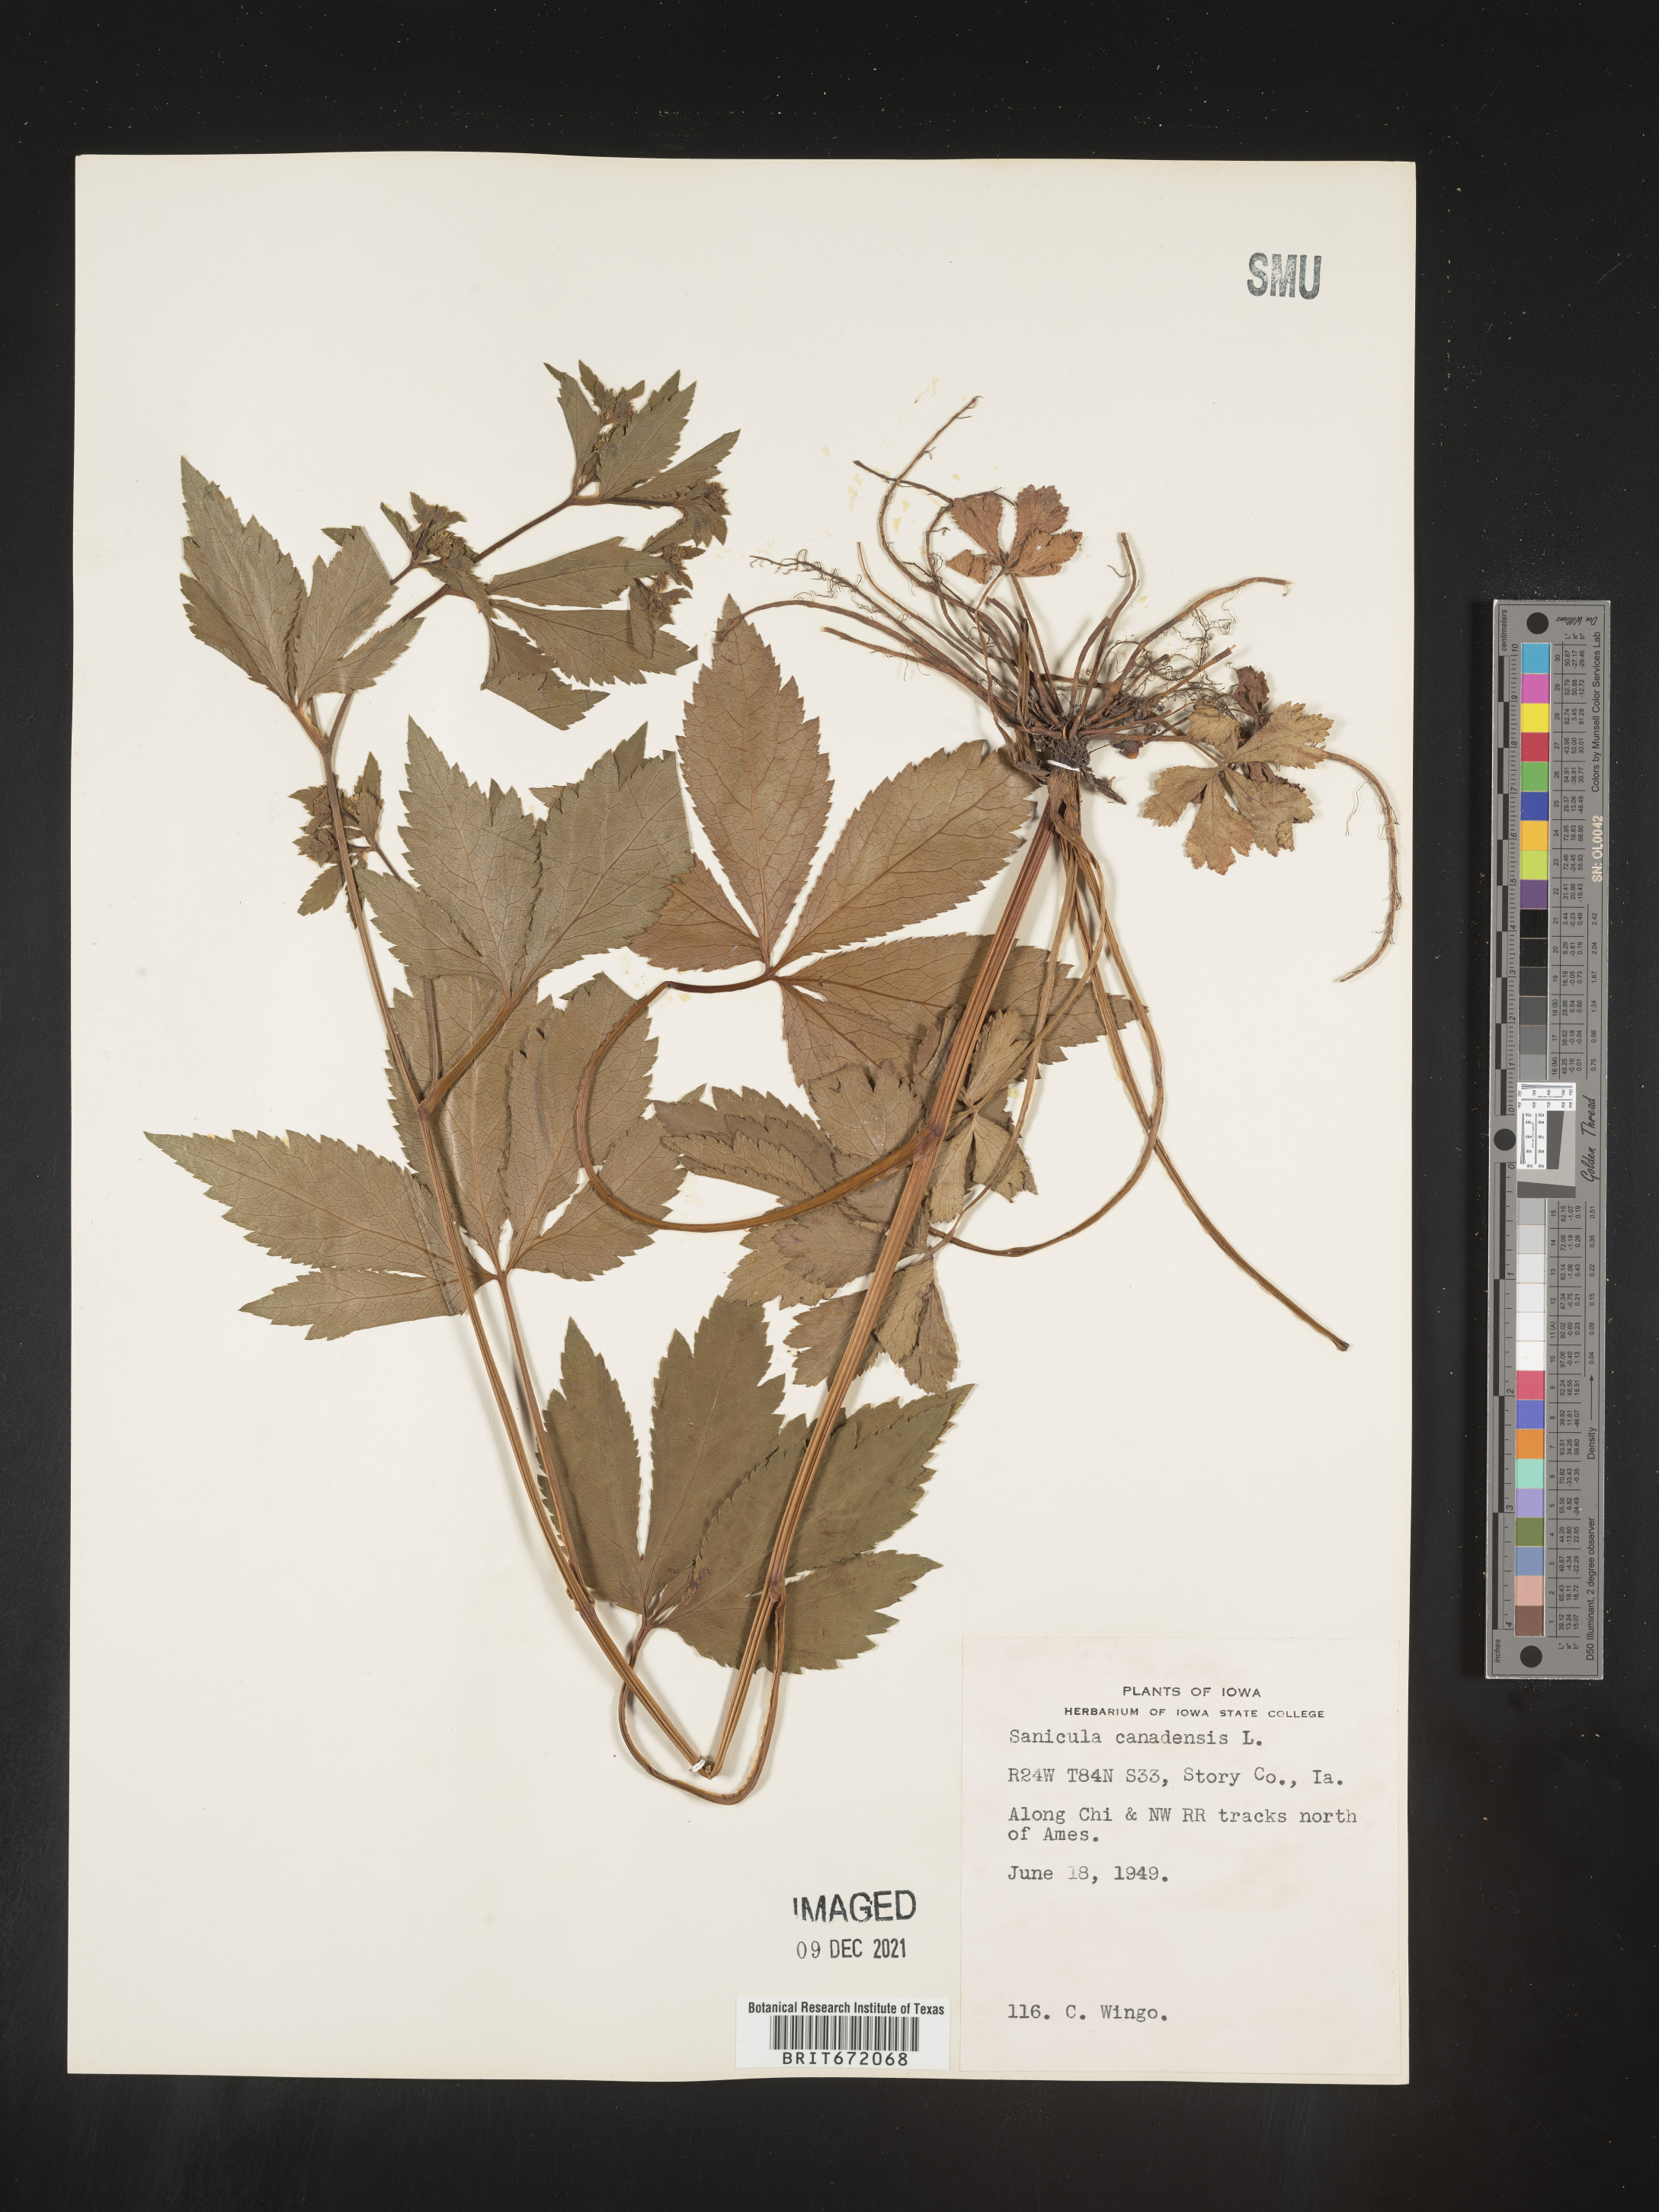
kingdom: Plantae
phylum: Tracheophyta
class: Magnoliopsida
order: Apiales
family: Apiaceae
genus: Sanicula
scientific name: Sanicula canadensis
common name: Canada sanicle
